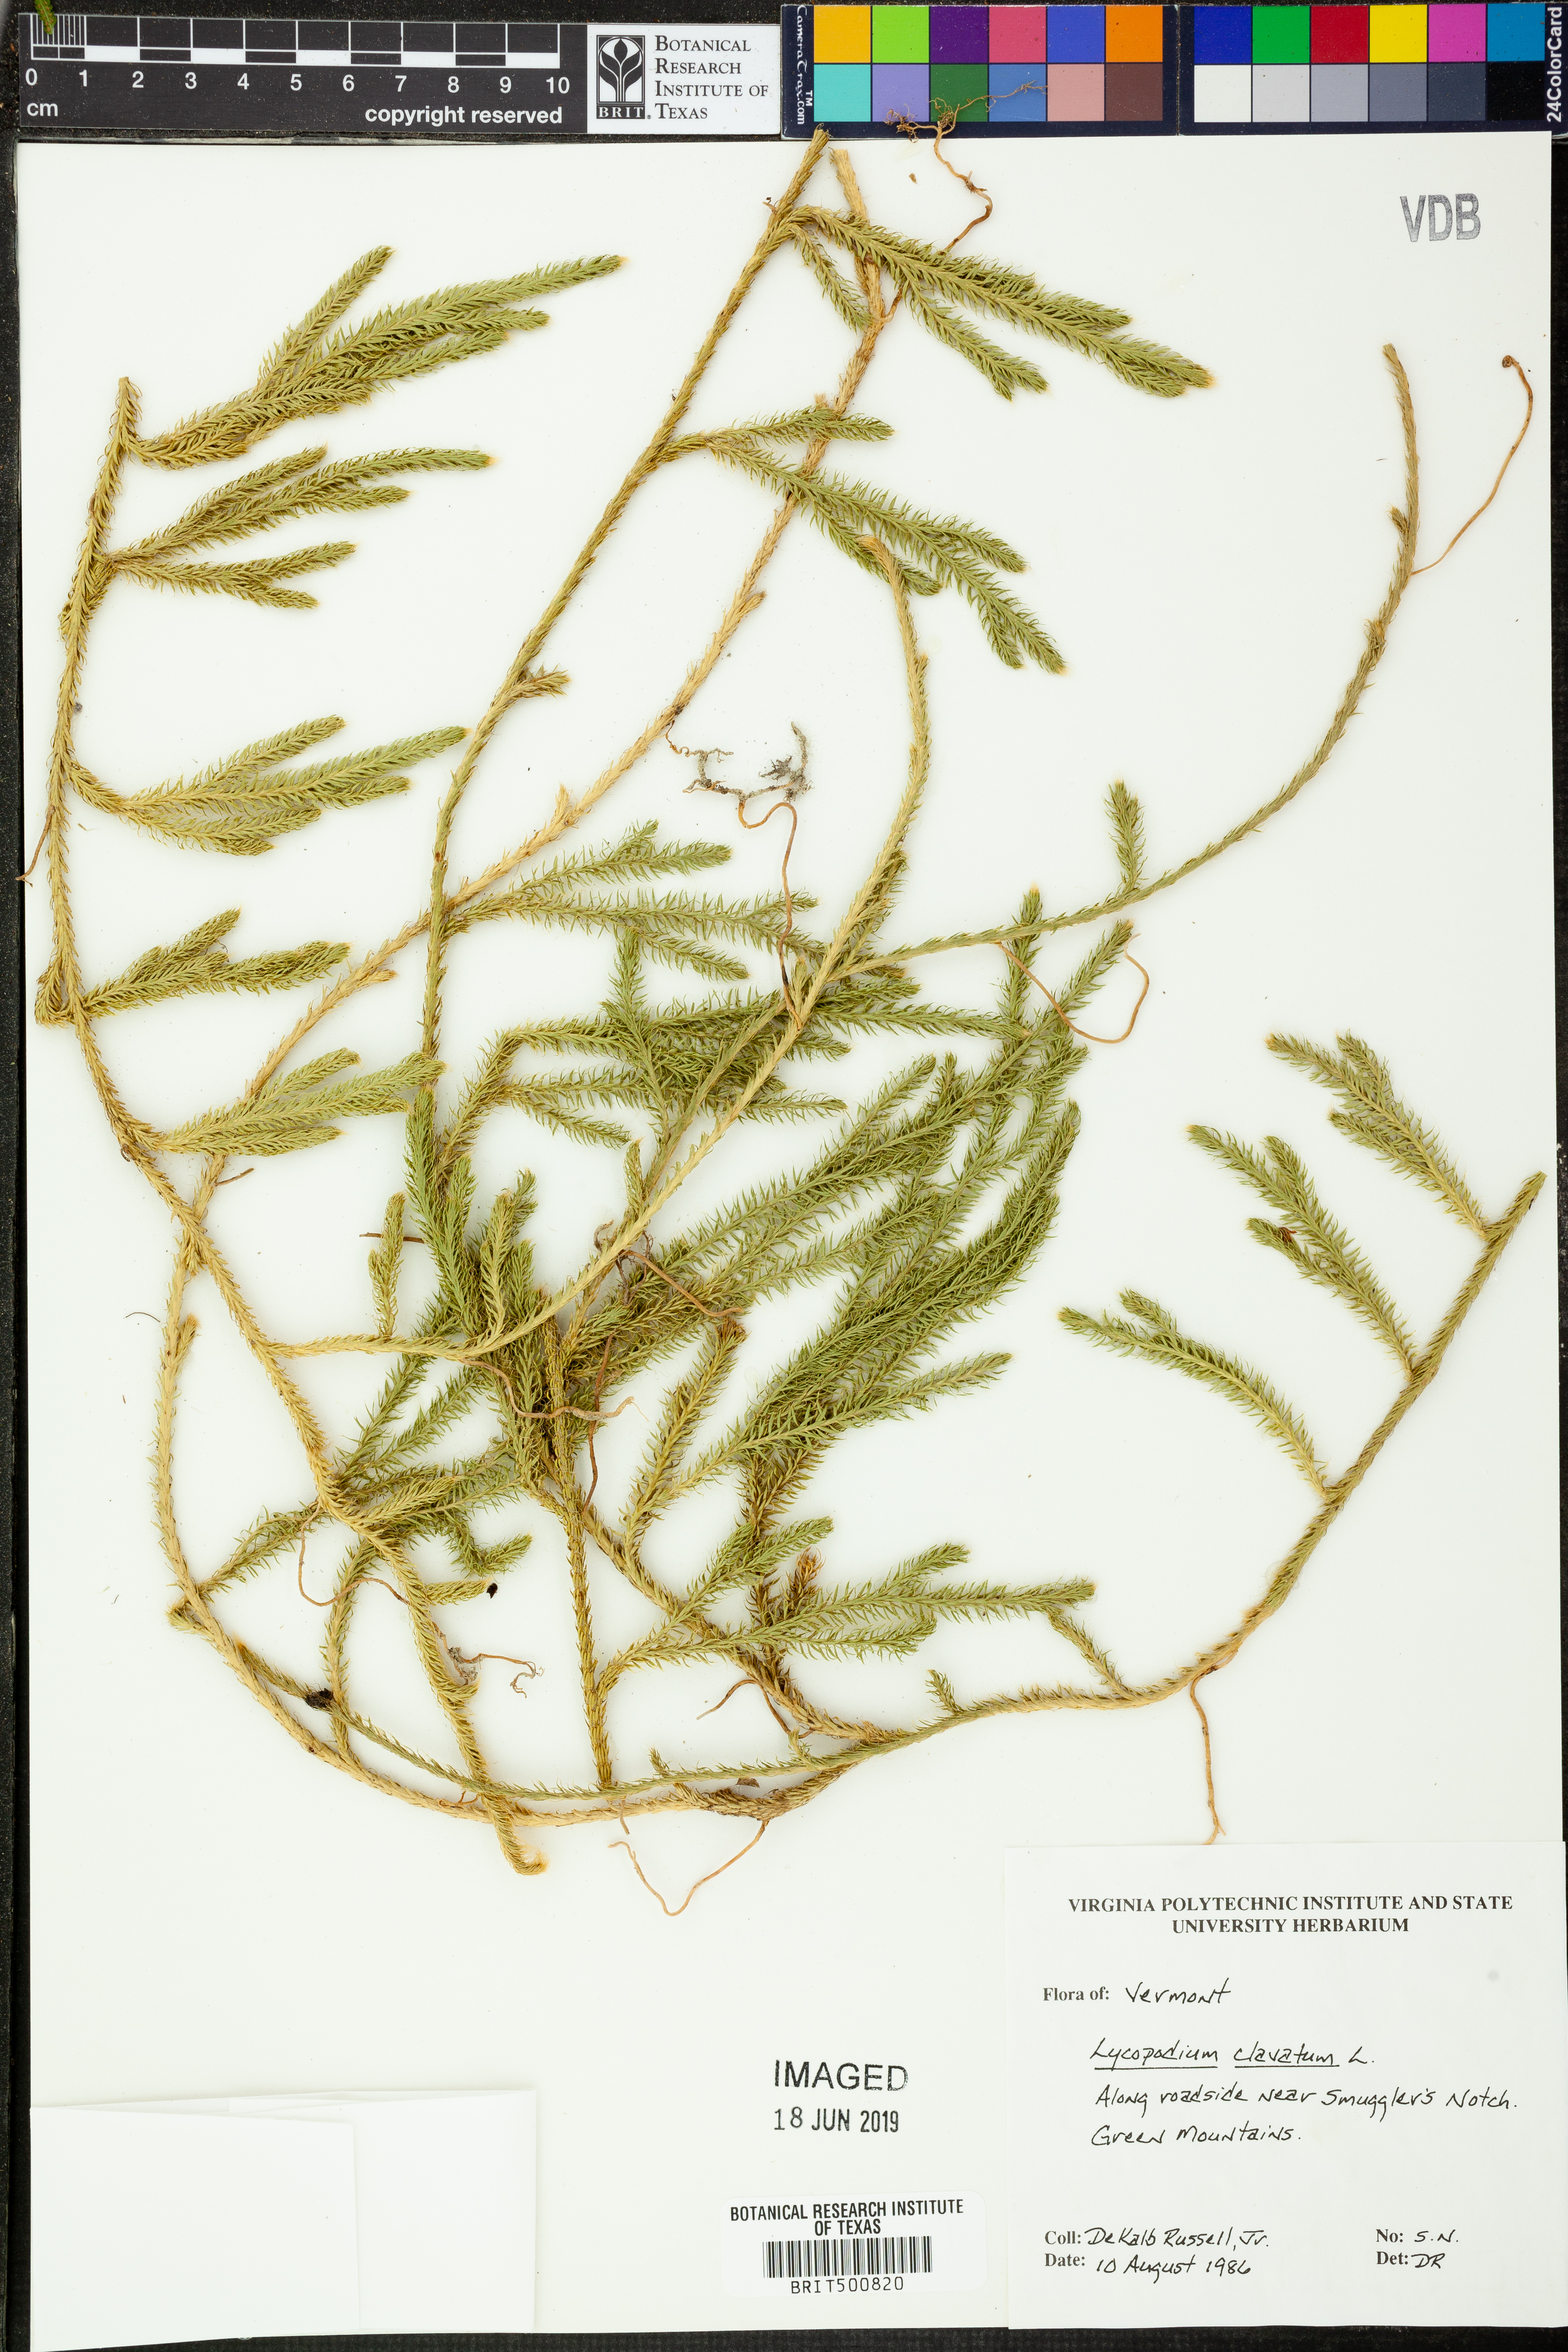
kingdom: Plantae
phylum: Tracheophyta
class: Lycopodiopsida
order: Lycopodiales
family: Lycopodiaceae
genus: Lycopodium
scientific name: Lycopodium clavatum
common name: Stag's-horn clubmoss
